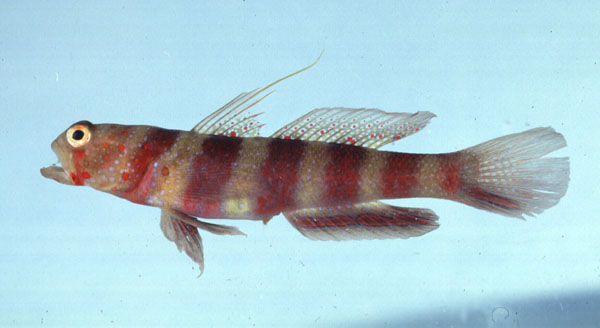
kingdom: Animalia
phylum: Chordata
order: Perciformes
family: Gobiidae
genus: Amblyeleotris
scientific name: Amblyeleotris wheeleri
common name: Gorgeous prawn-goby
